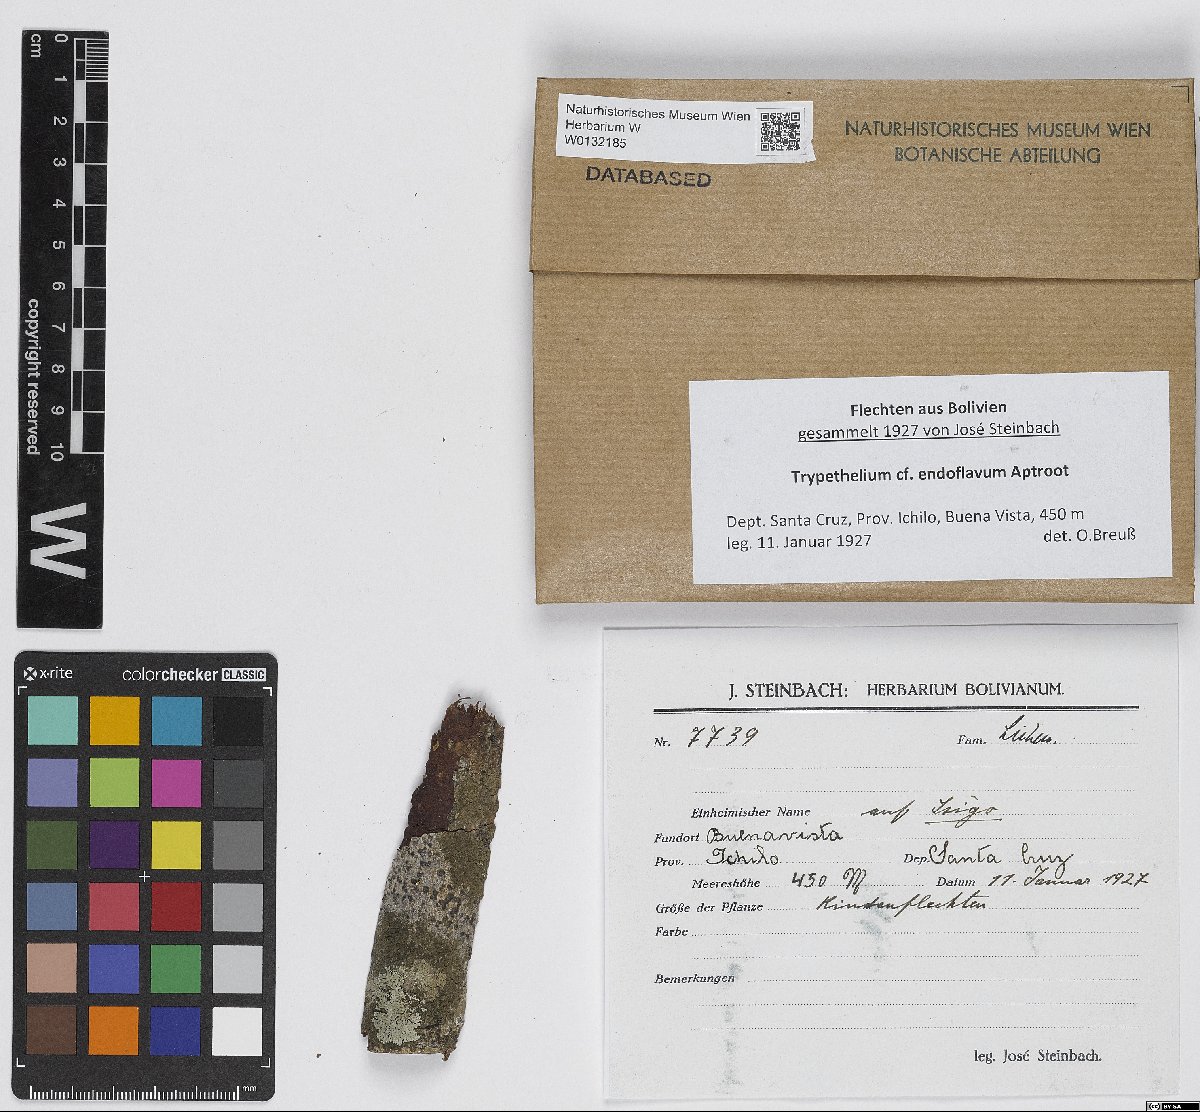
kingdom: Fungi
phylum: Ascomycota
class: Dothideomycetes
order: Trypetheliales
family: Trypetheliaceae
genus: Trypethelium
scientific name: Trypethelium endoflavum
